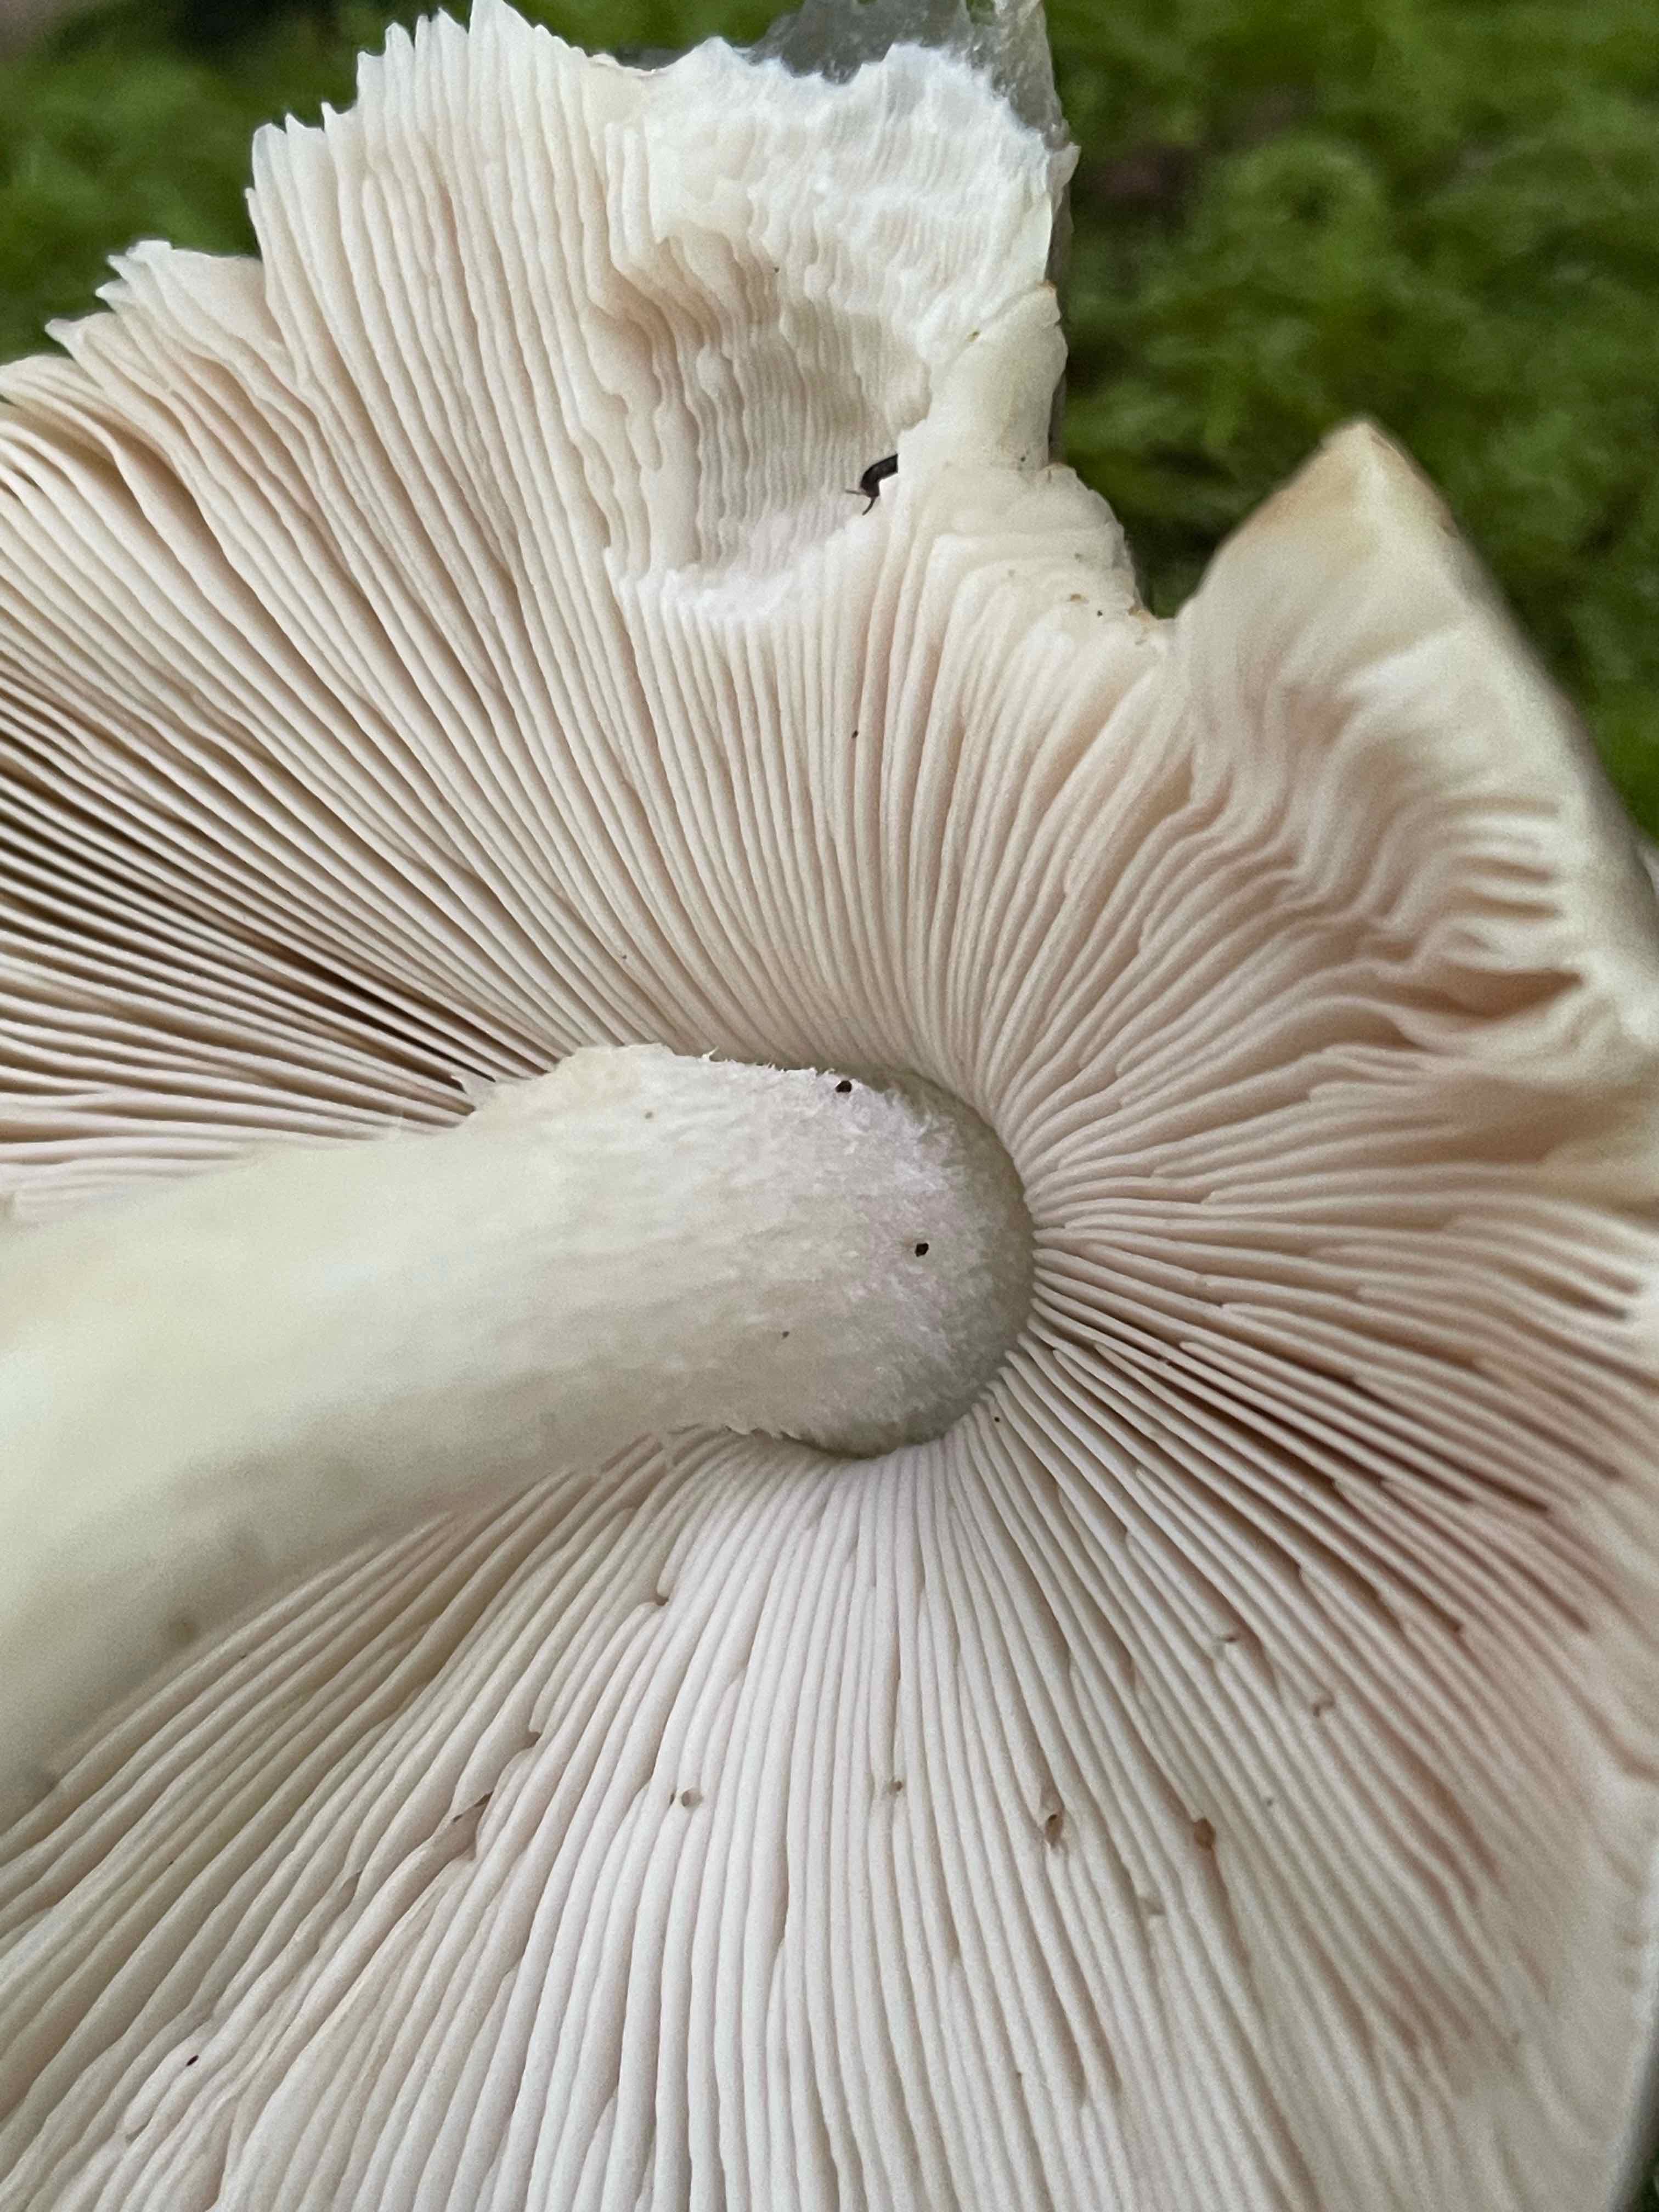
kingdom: Fungi
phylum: Basidiomycota
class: Agaricomycetes
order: Agaricales
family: Pluteaceae
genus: Pluteus
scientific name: Pluteus
